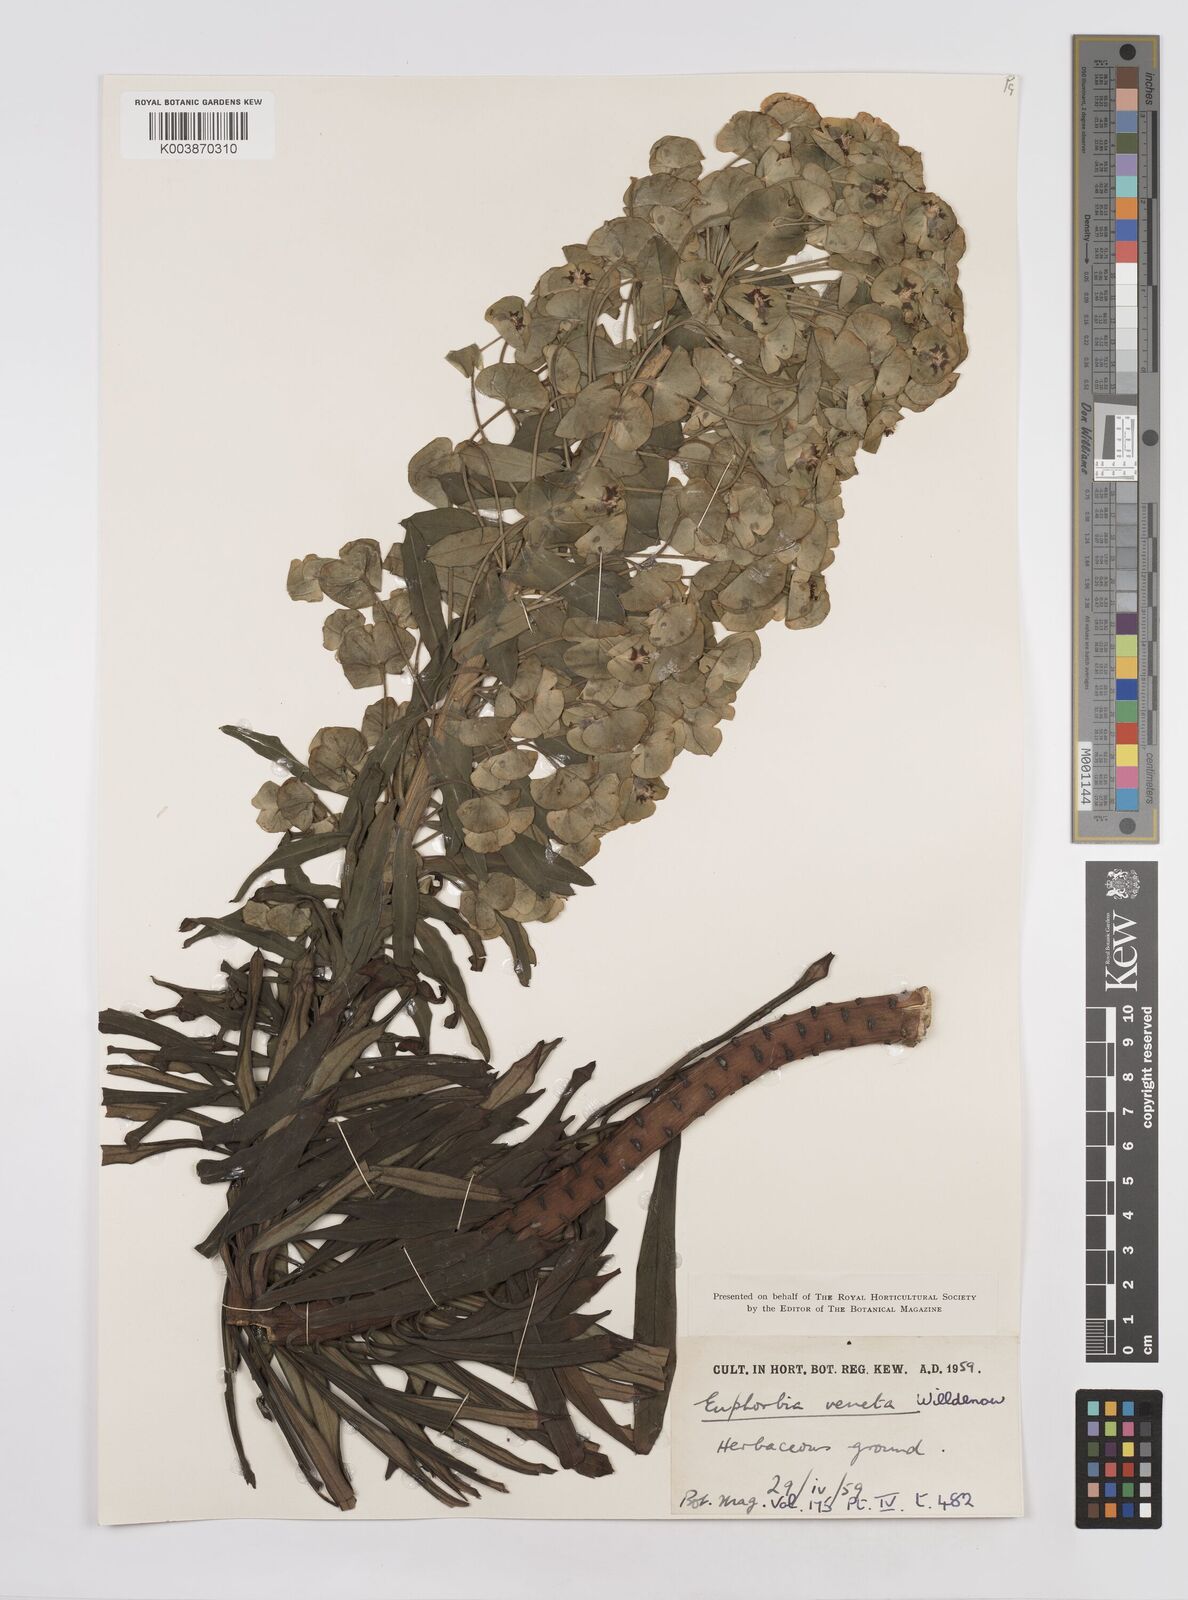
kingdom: Plantae
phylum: Tracheophyta
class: Magnoliopsida
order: Malpighiales
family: Euphorbiaceae
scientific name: Euphorbiaceae
